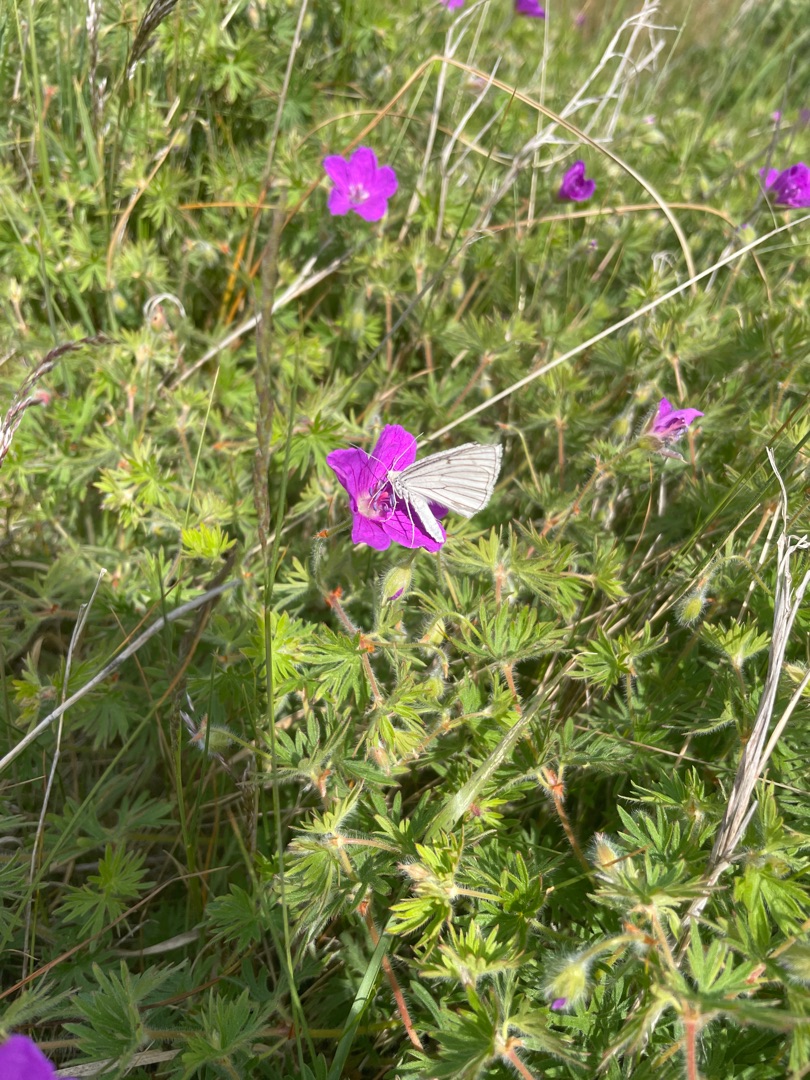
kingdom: Animalia
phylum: Arthropoda
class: Insecta
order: Lepidoptera
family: Geometridae
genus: Siona
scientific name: Siona lineata
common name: Hvidvingemåler
